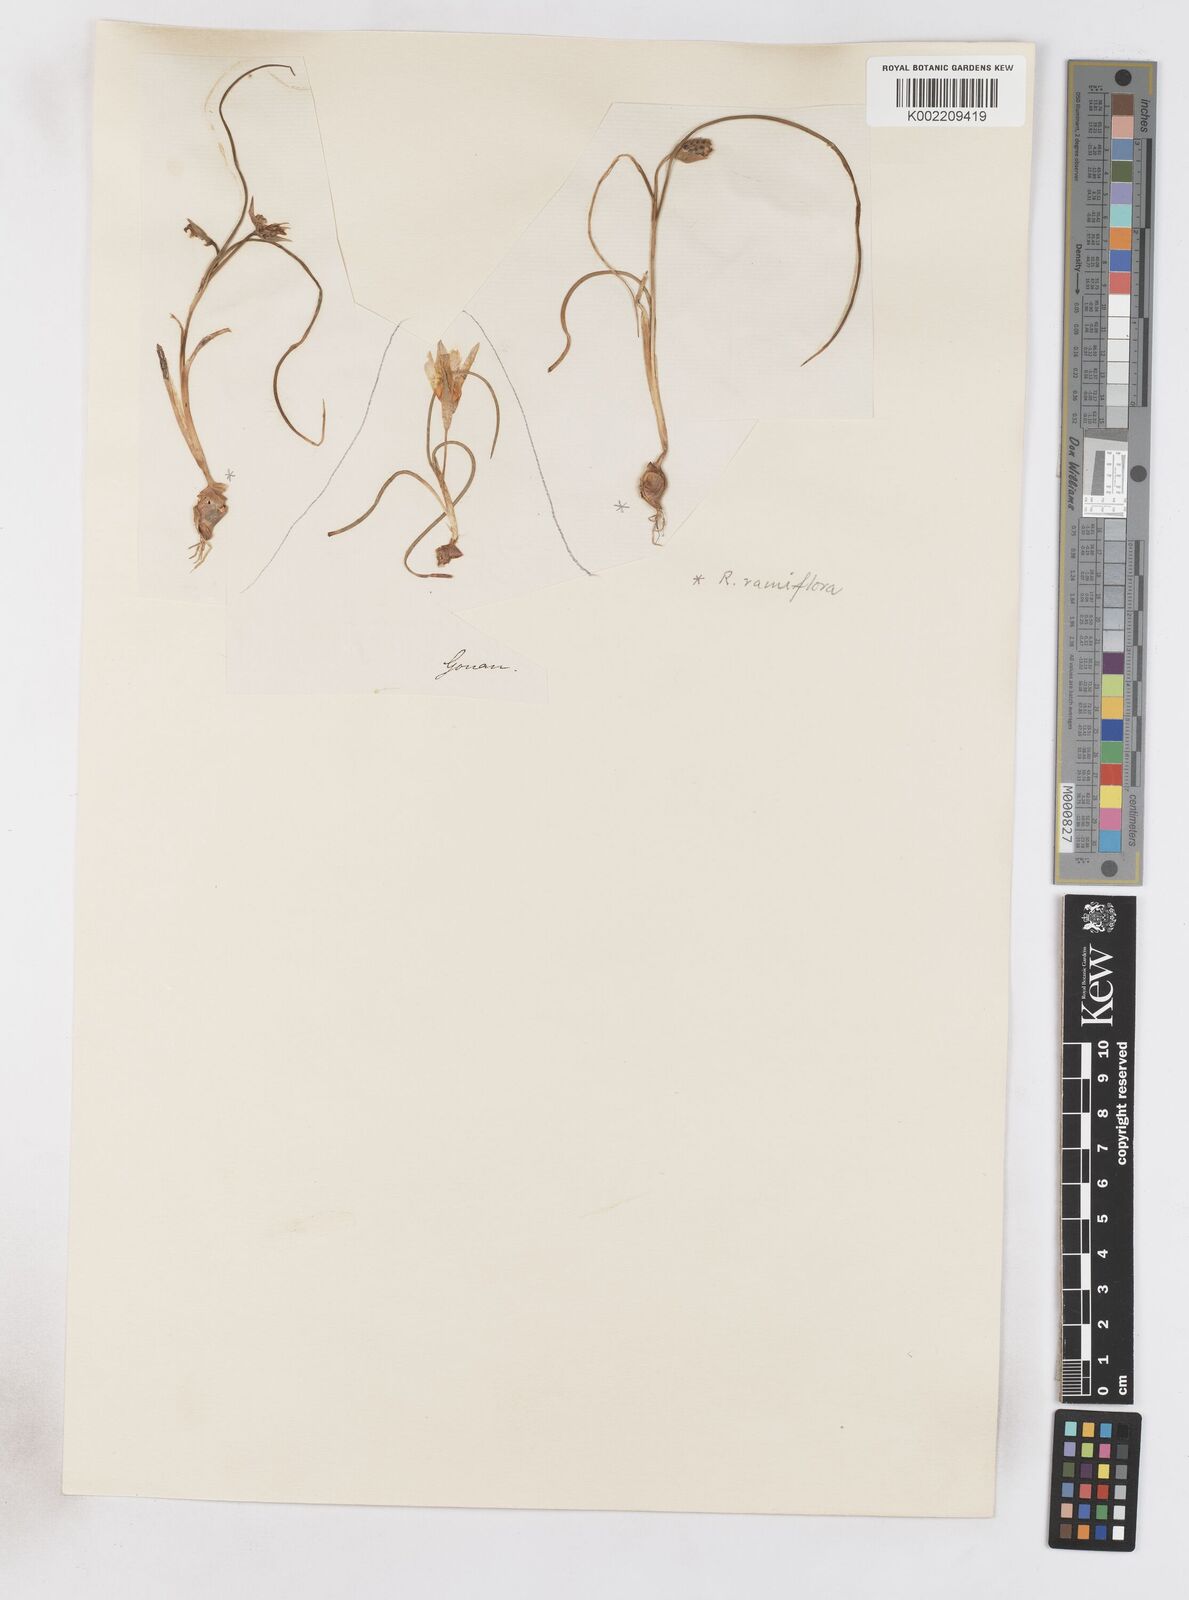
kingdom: Plantae
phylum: Tracheophyta
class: Liliopsida
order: Asparagales
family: Iridaceae
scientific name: Iridaceae
